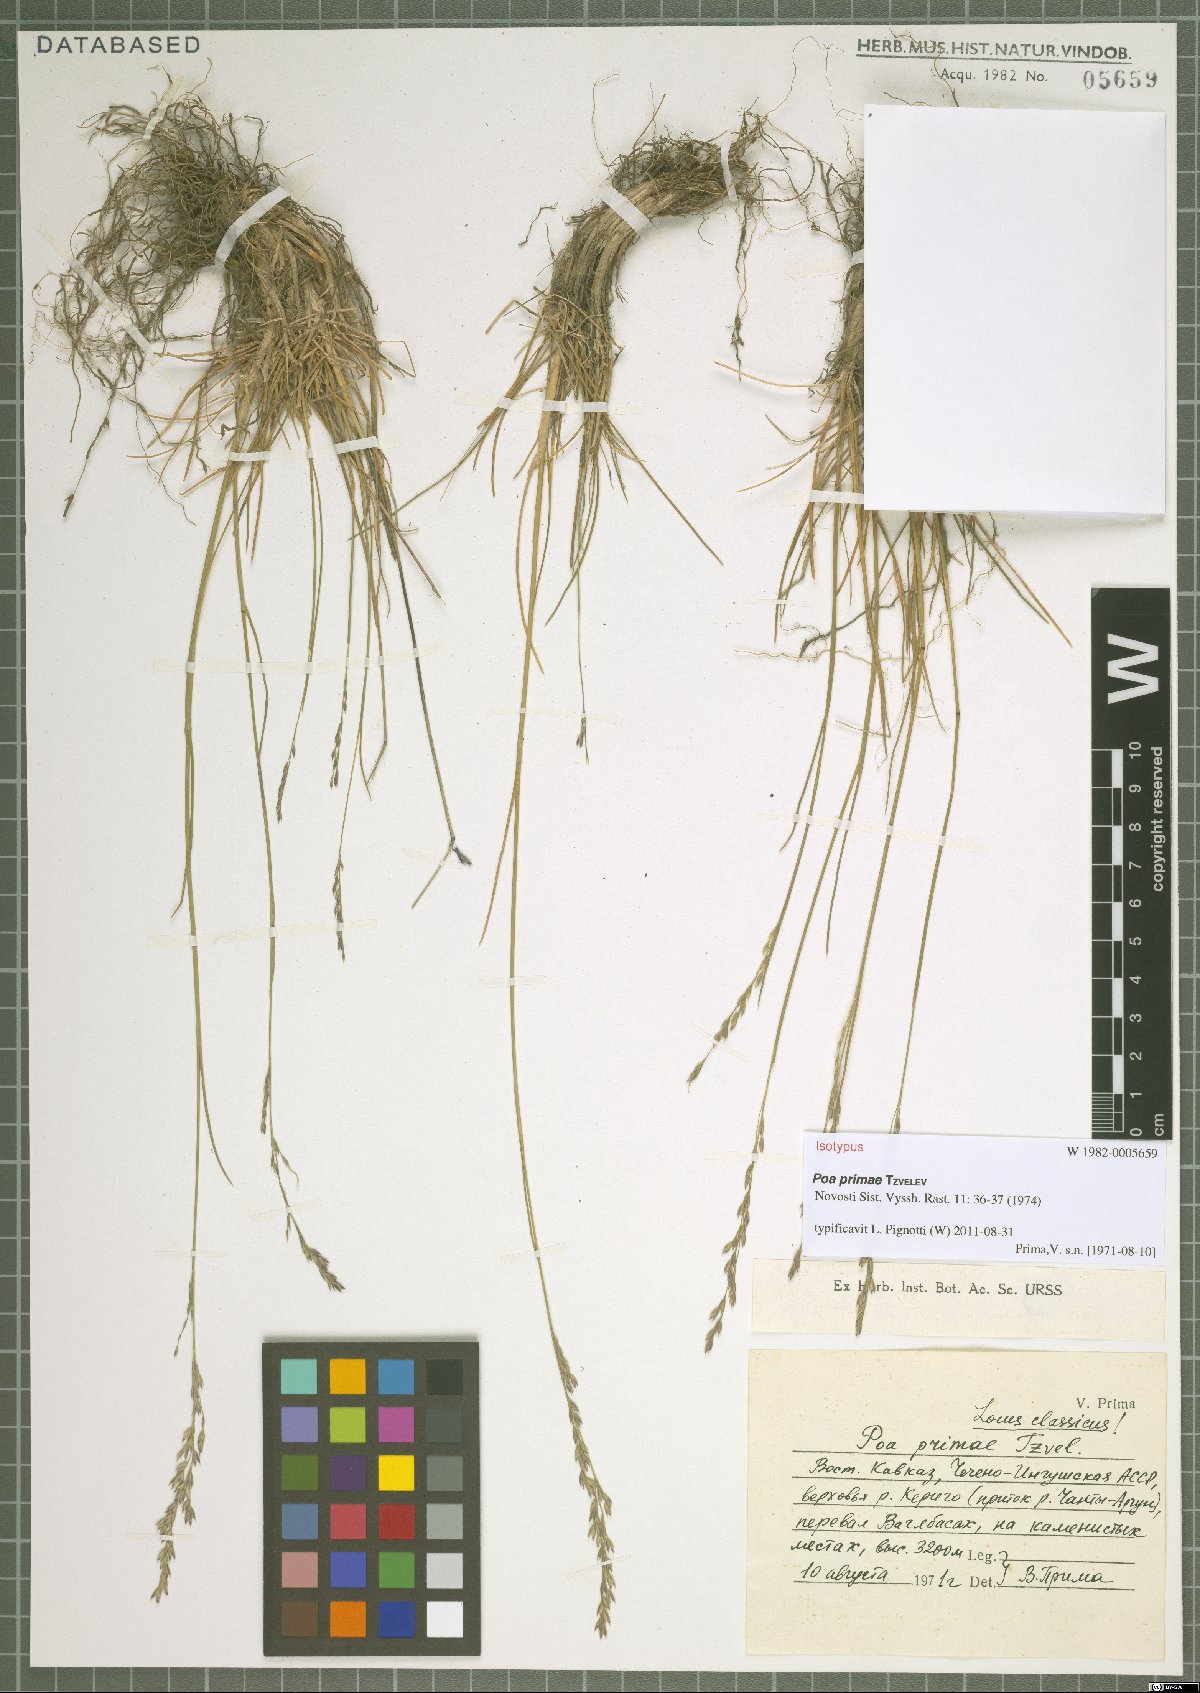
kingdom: Plantae
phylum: Tracheophyta
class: Liliopsida
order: Poales
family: Poaceae
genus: Poa
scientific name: Poa primae
